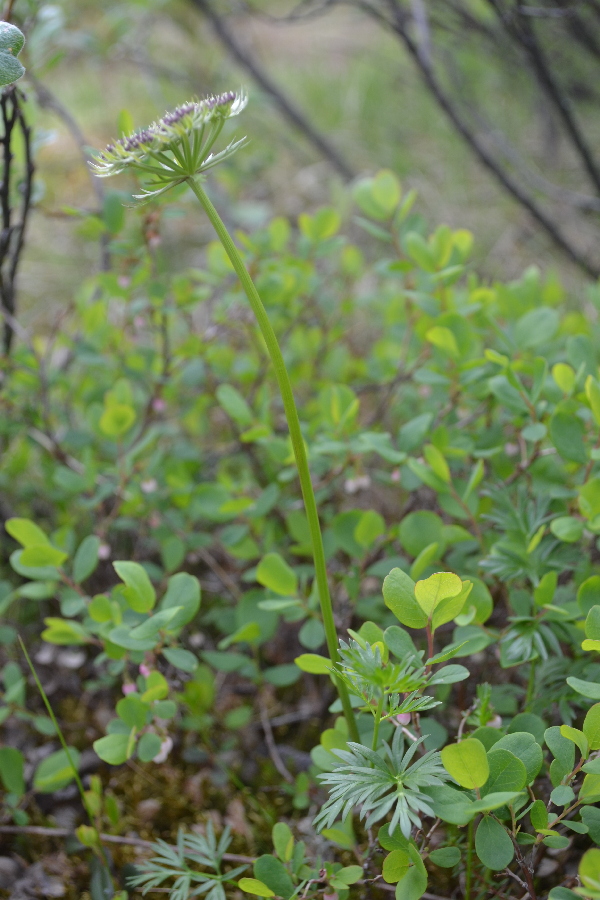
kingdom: Plantae
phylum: Tracheophyta
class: Magnoliopsida
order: Apiales
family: Apiaceae
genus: Pachypleurum
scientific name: Pachypleurum mutellinoides
